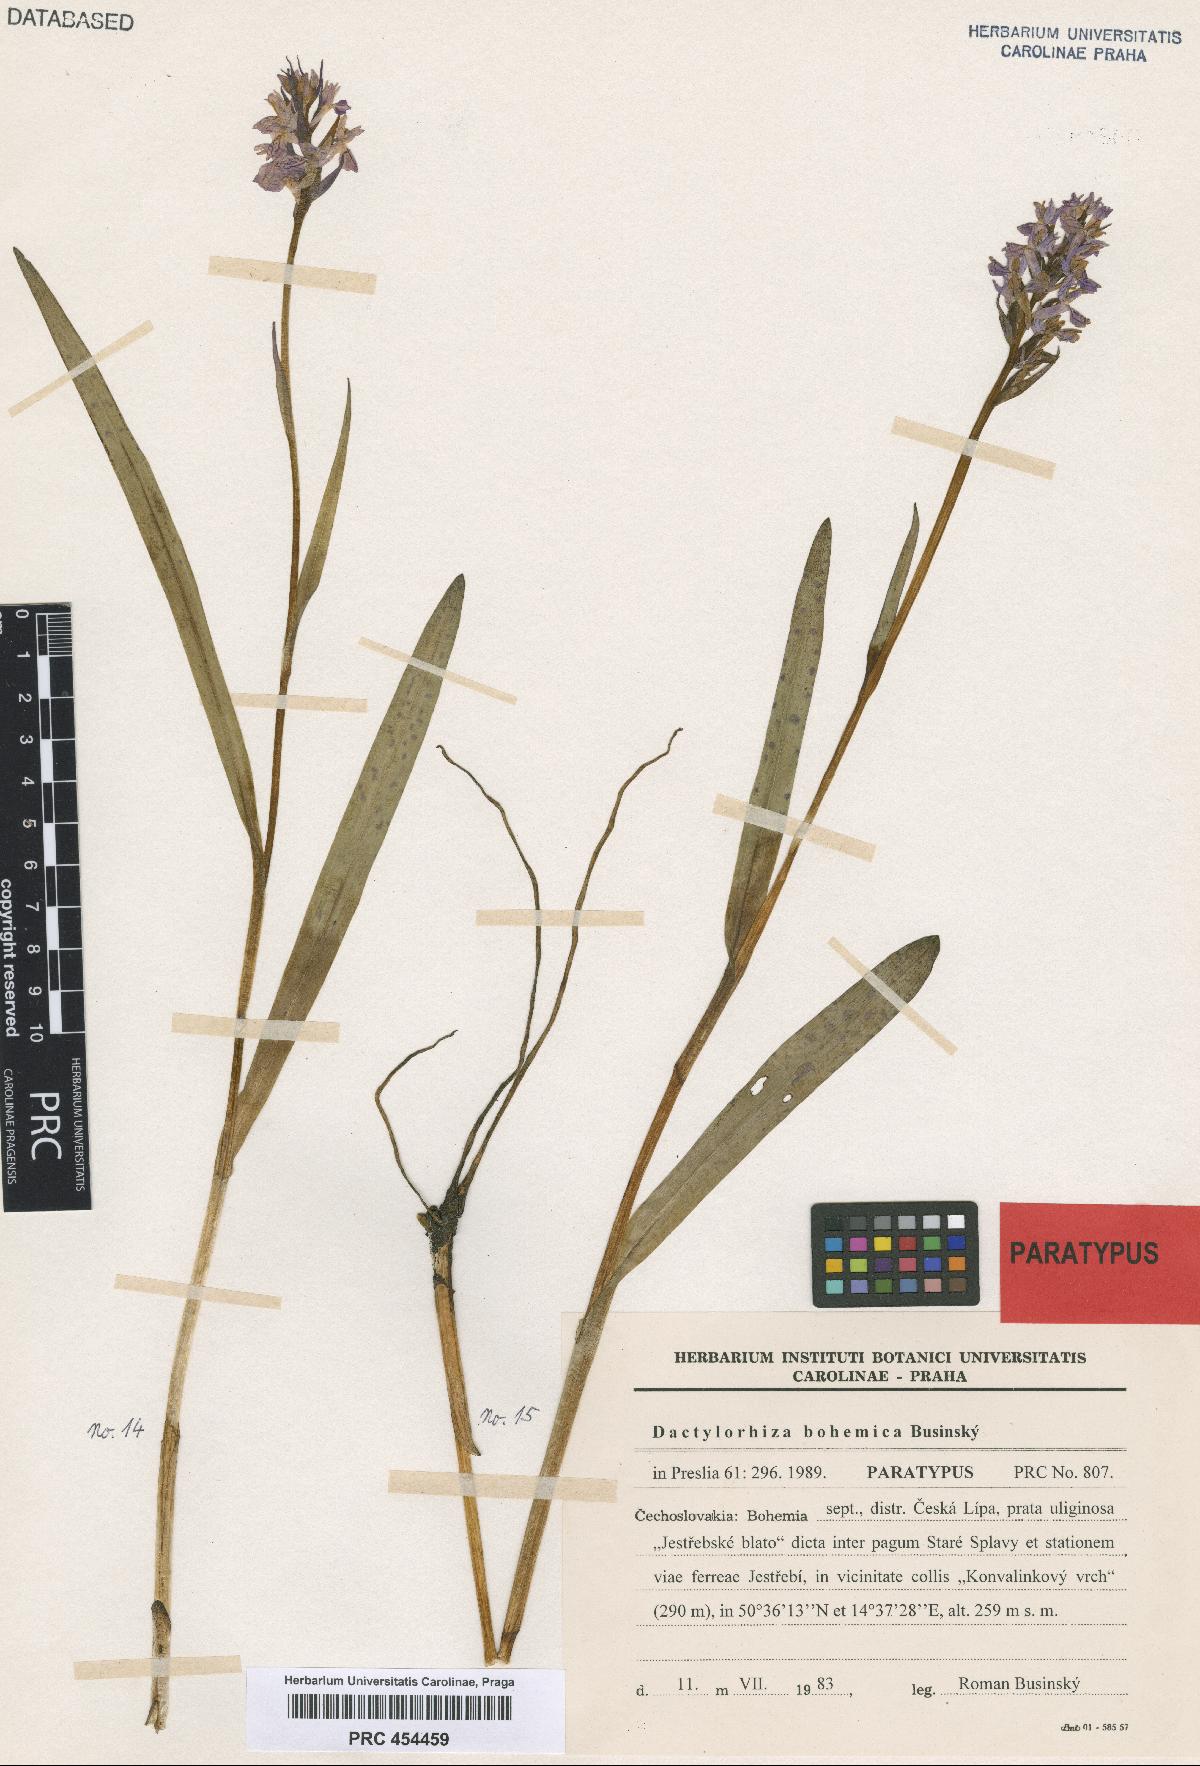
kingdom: Plantae
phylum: Tracheophyta
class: Liliopsida
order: Asparagales
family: Orchidaceae
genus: Dactylorhiza
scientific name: Dactylorhiza majalis
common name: Marsh orchid
